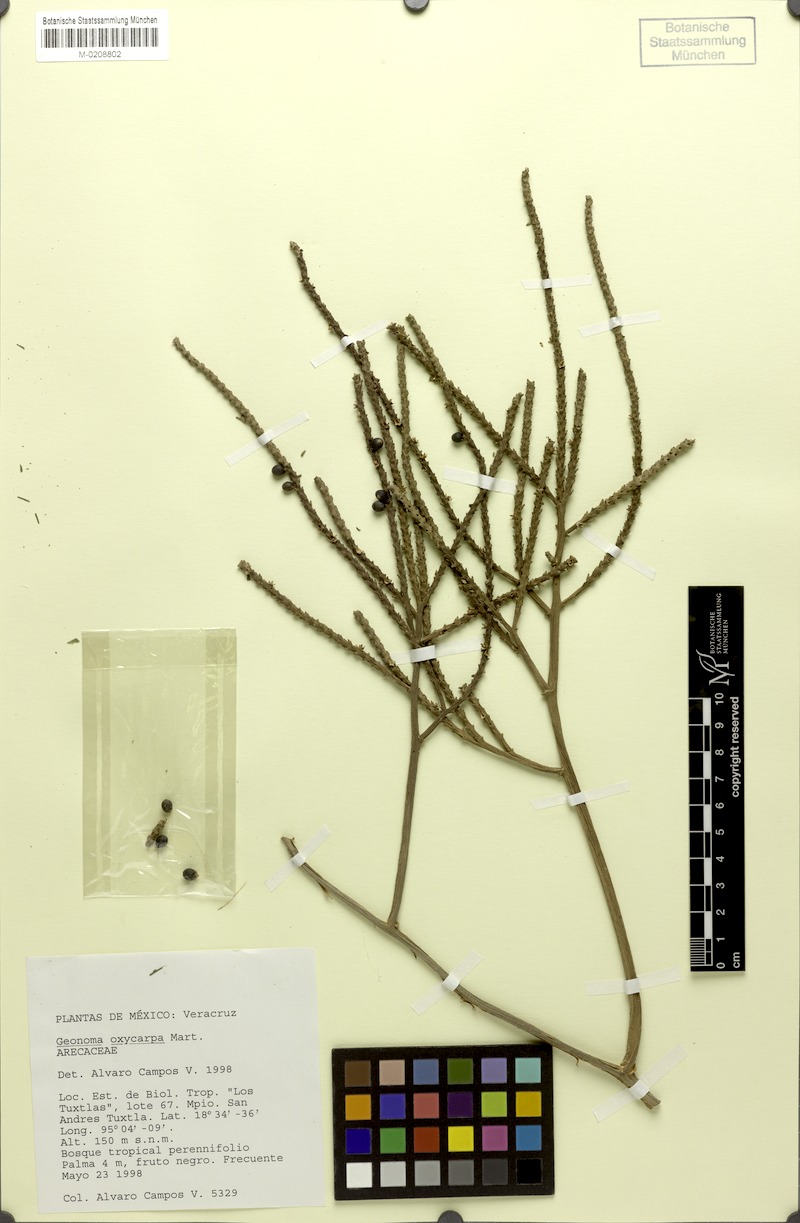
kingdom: Plantae
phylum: Tracheophyta
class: Liliopsida
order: Arecales
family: Arecaceae
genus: Geonoma
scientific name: Geonoma pinnatifrons
